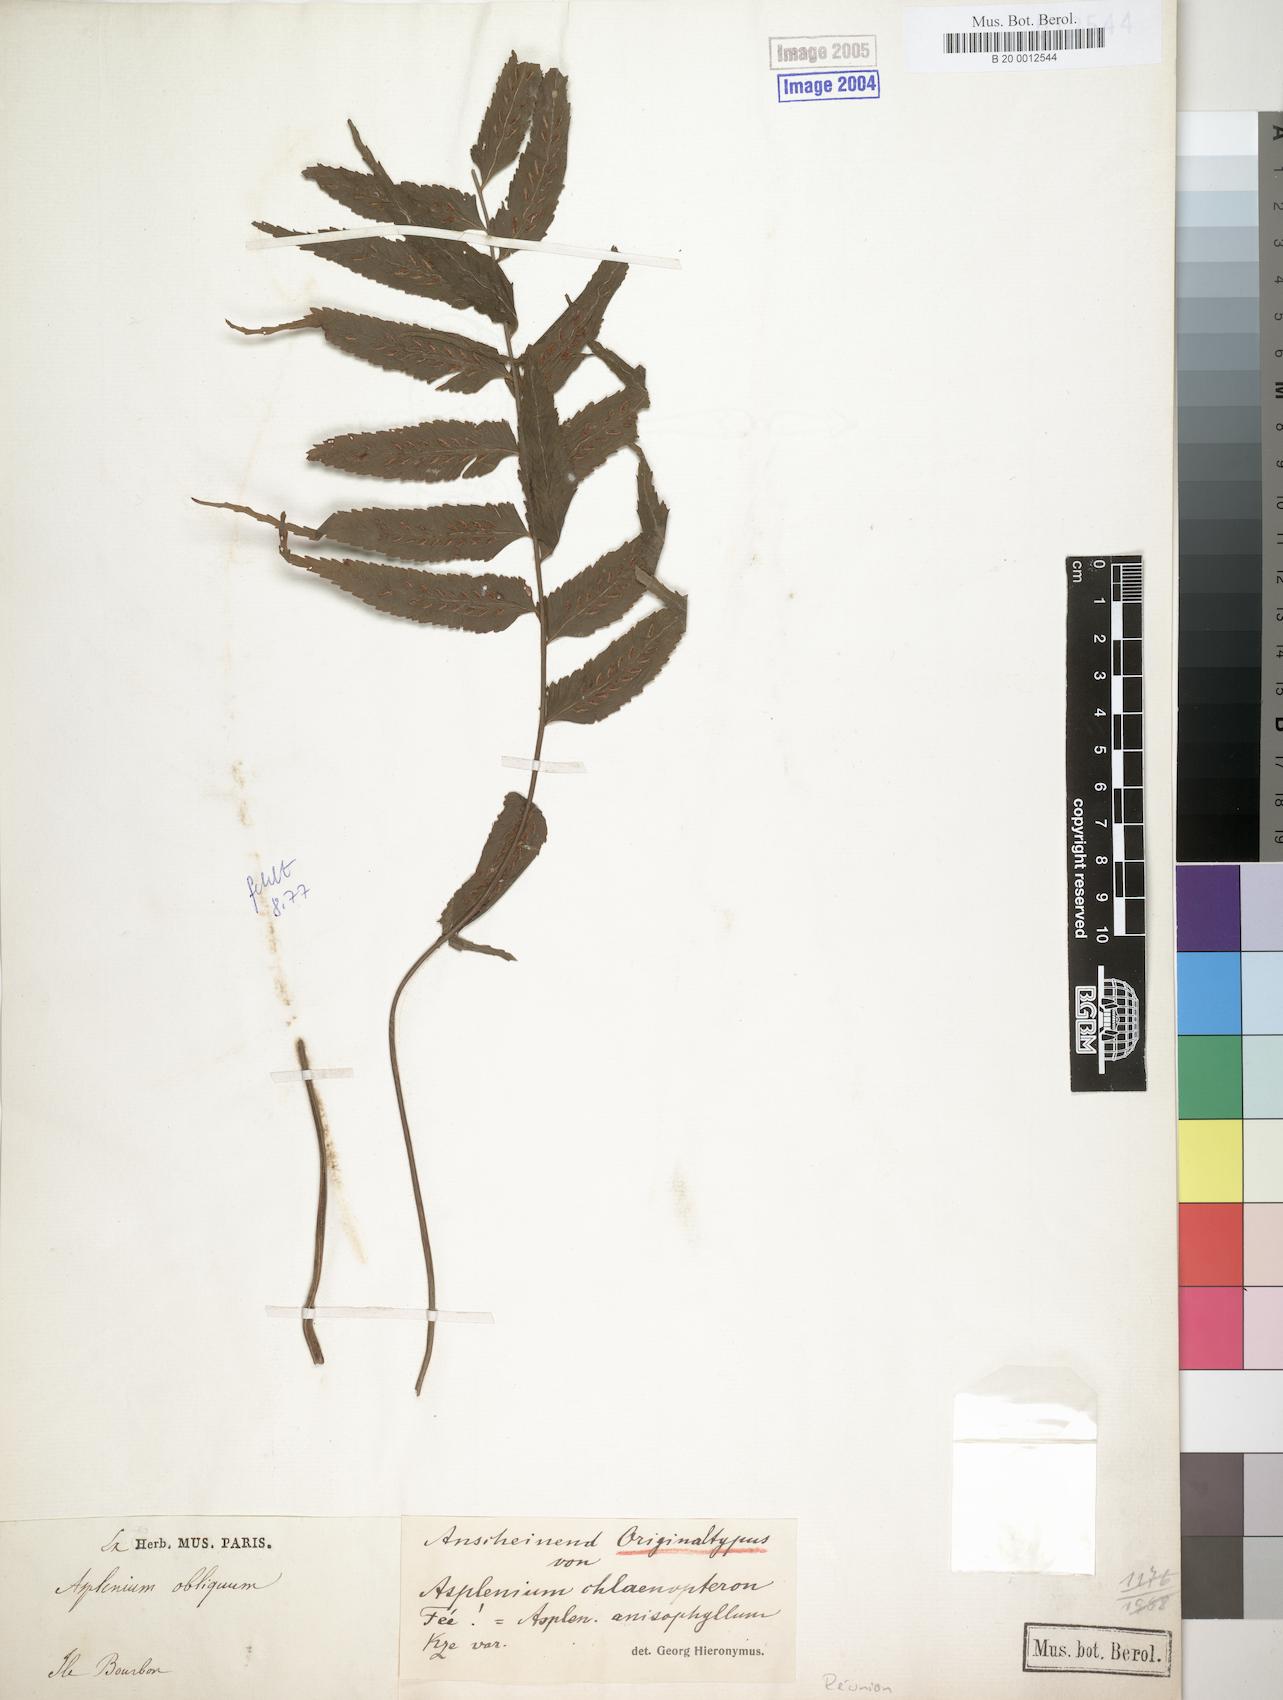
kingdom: Plantae
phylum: Tracheophyta
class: Polypodiopsida
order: Polypodiales
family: Aspleniaceae
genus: Asplenium
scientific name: Asplenium anisophyllum
